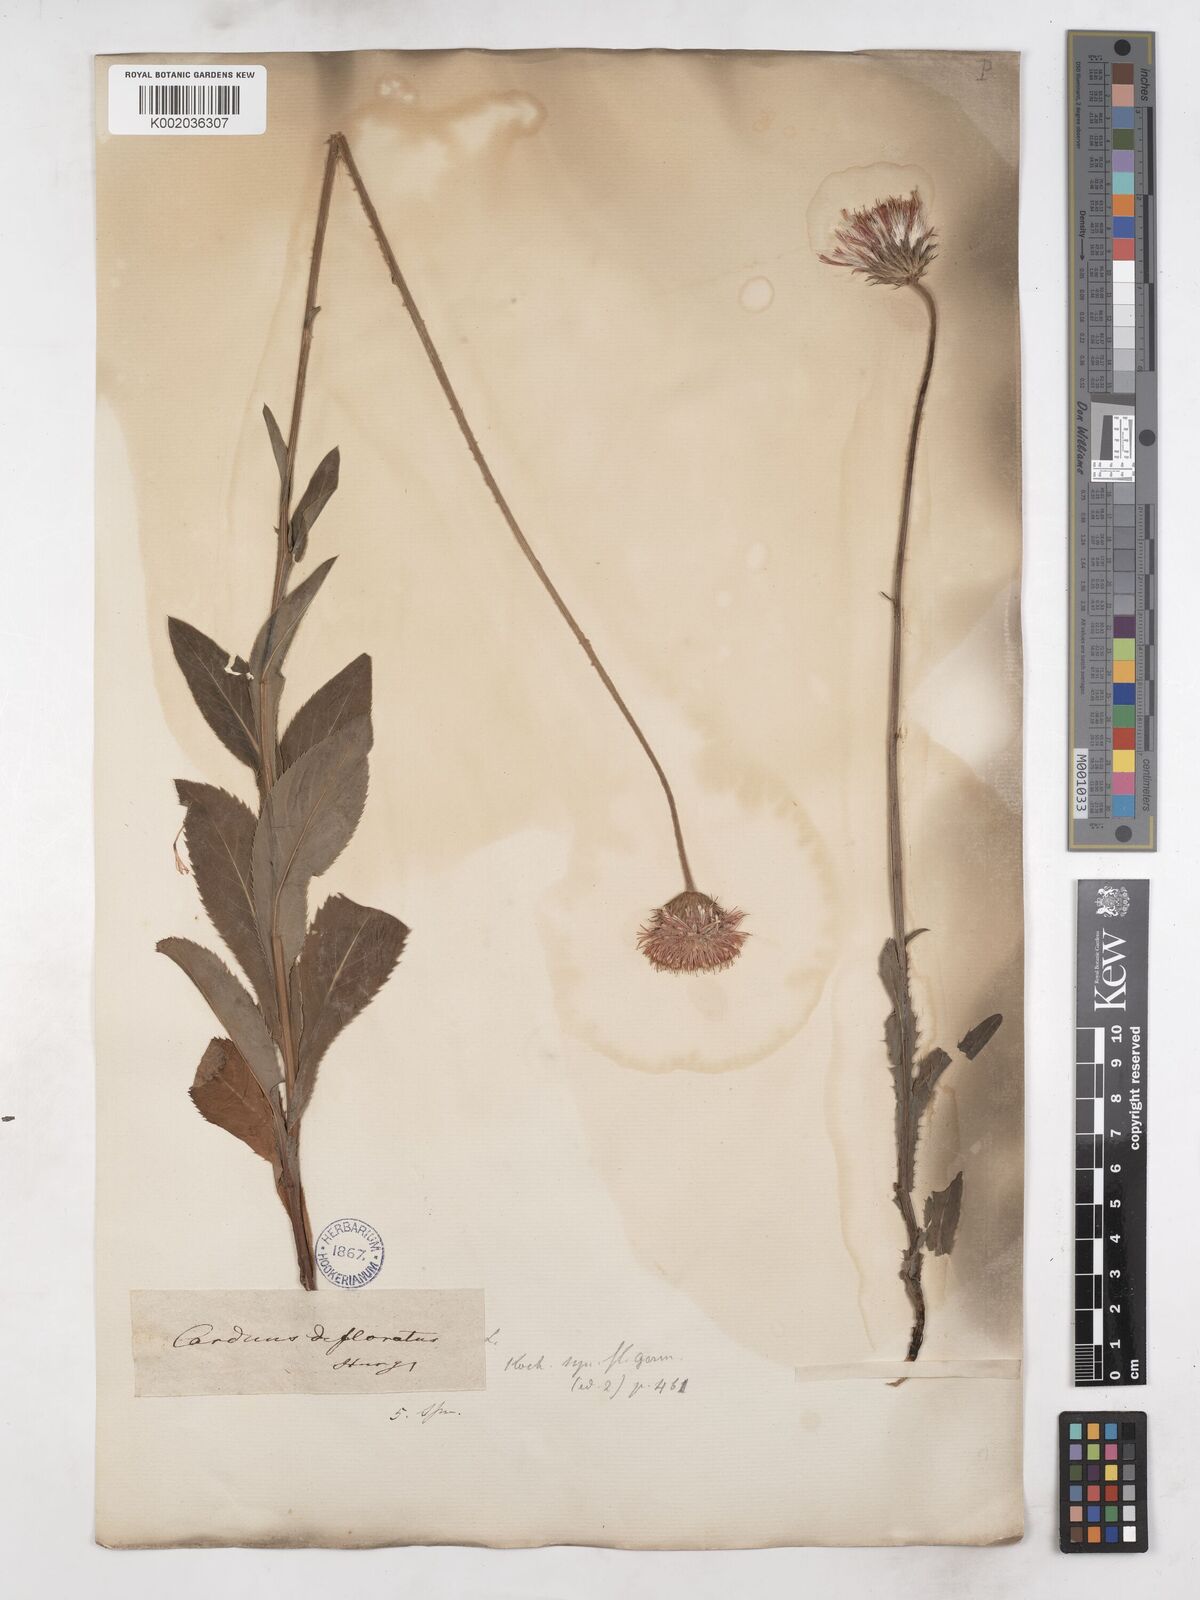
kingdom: Plantae
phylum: Tracheophyta
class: Magnoliopsida
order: Asterales
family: Asteraceae
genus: Carduus
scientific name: Carduus
